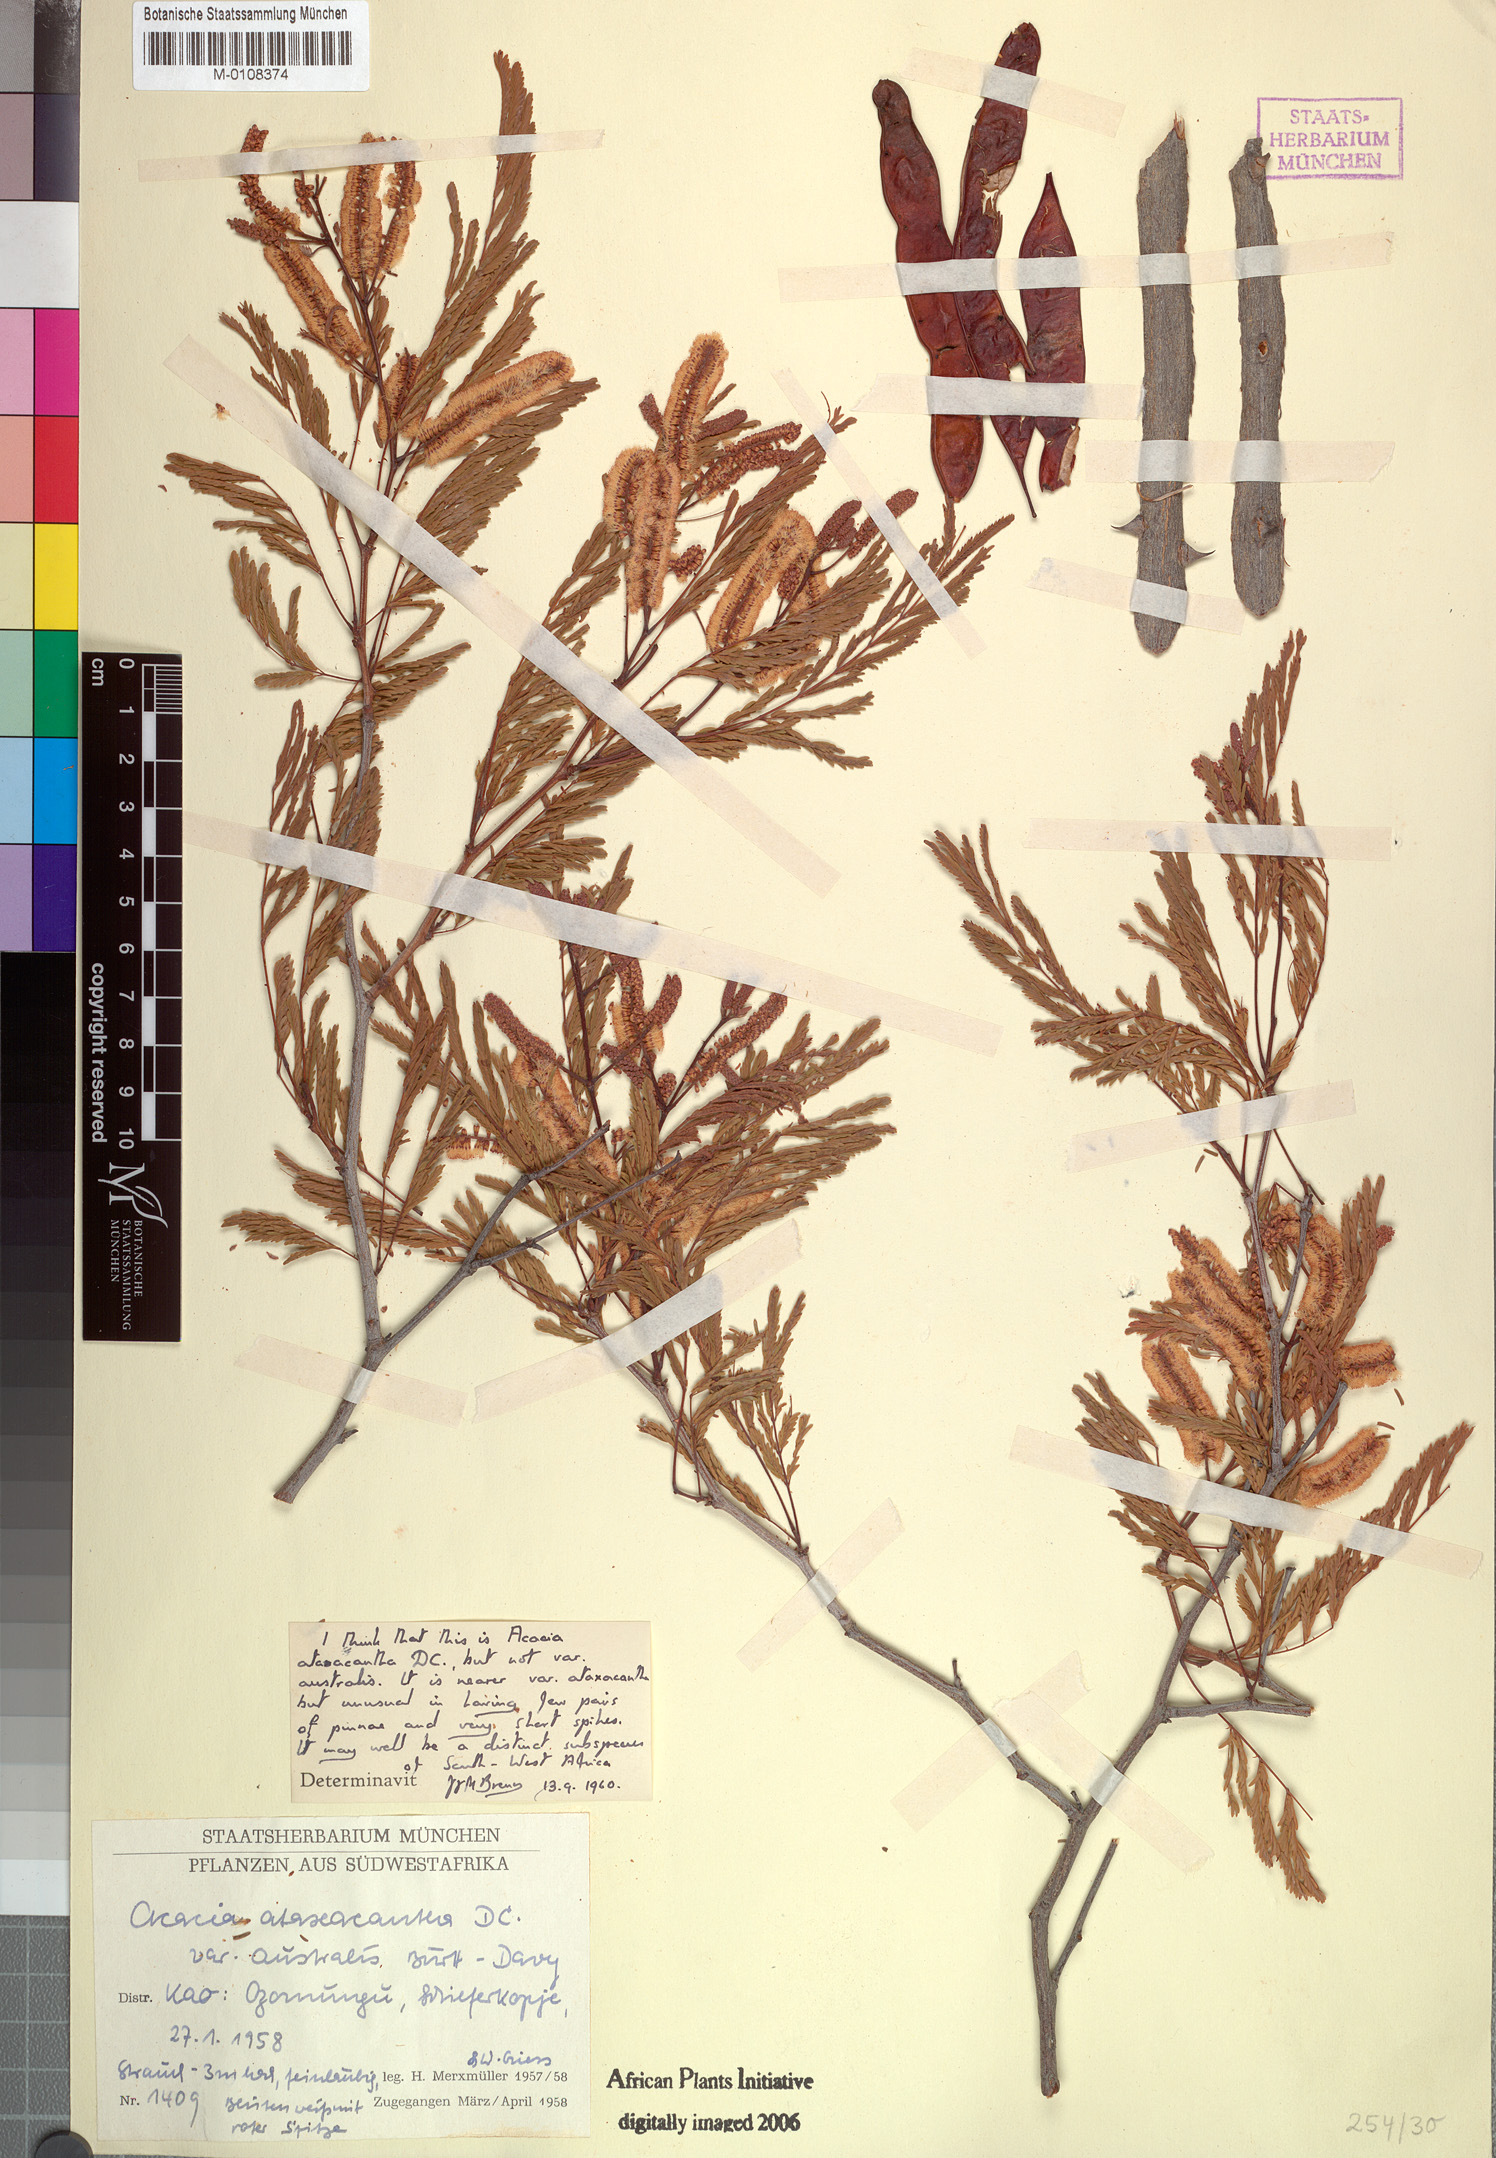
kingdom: Plantae
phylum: Tracheophyta
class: Magnoliopsida
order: Fabales
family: Fabaceae
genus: Senegalia
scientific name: Senegalia ataxacantha
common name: Flame acacia
